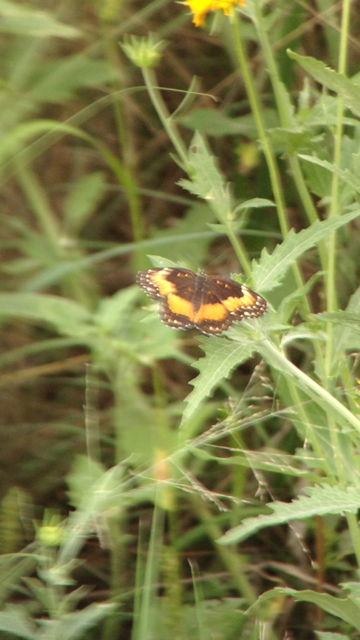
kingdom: Animalia
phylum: Arthropoda
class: Insecta
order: Lepidoptera
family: Nymphalidae
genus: Chlosyne
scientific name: Chlosyne lacinia
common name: Bordered Patch
